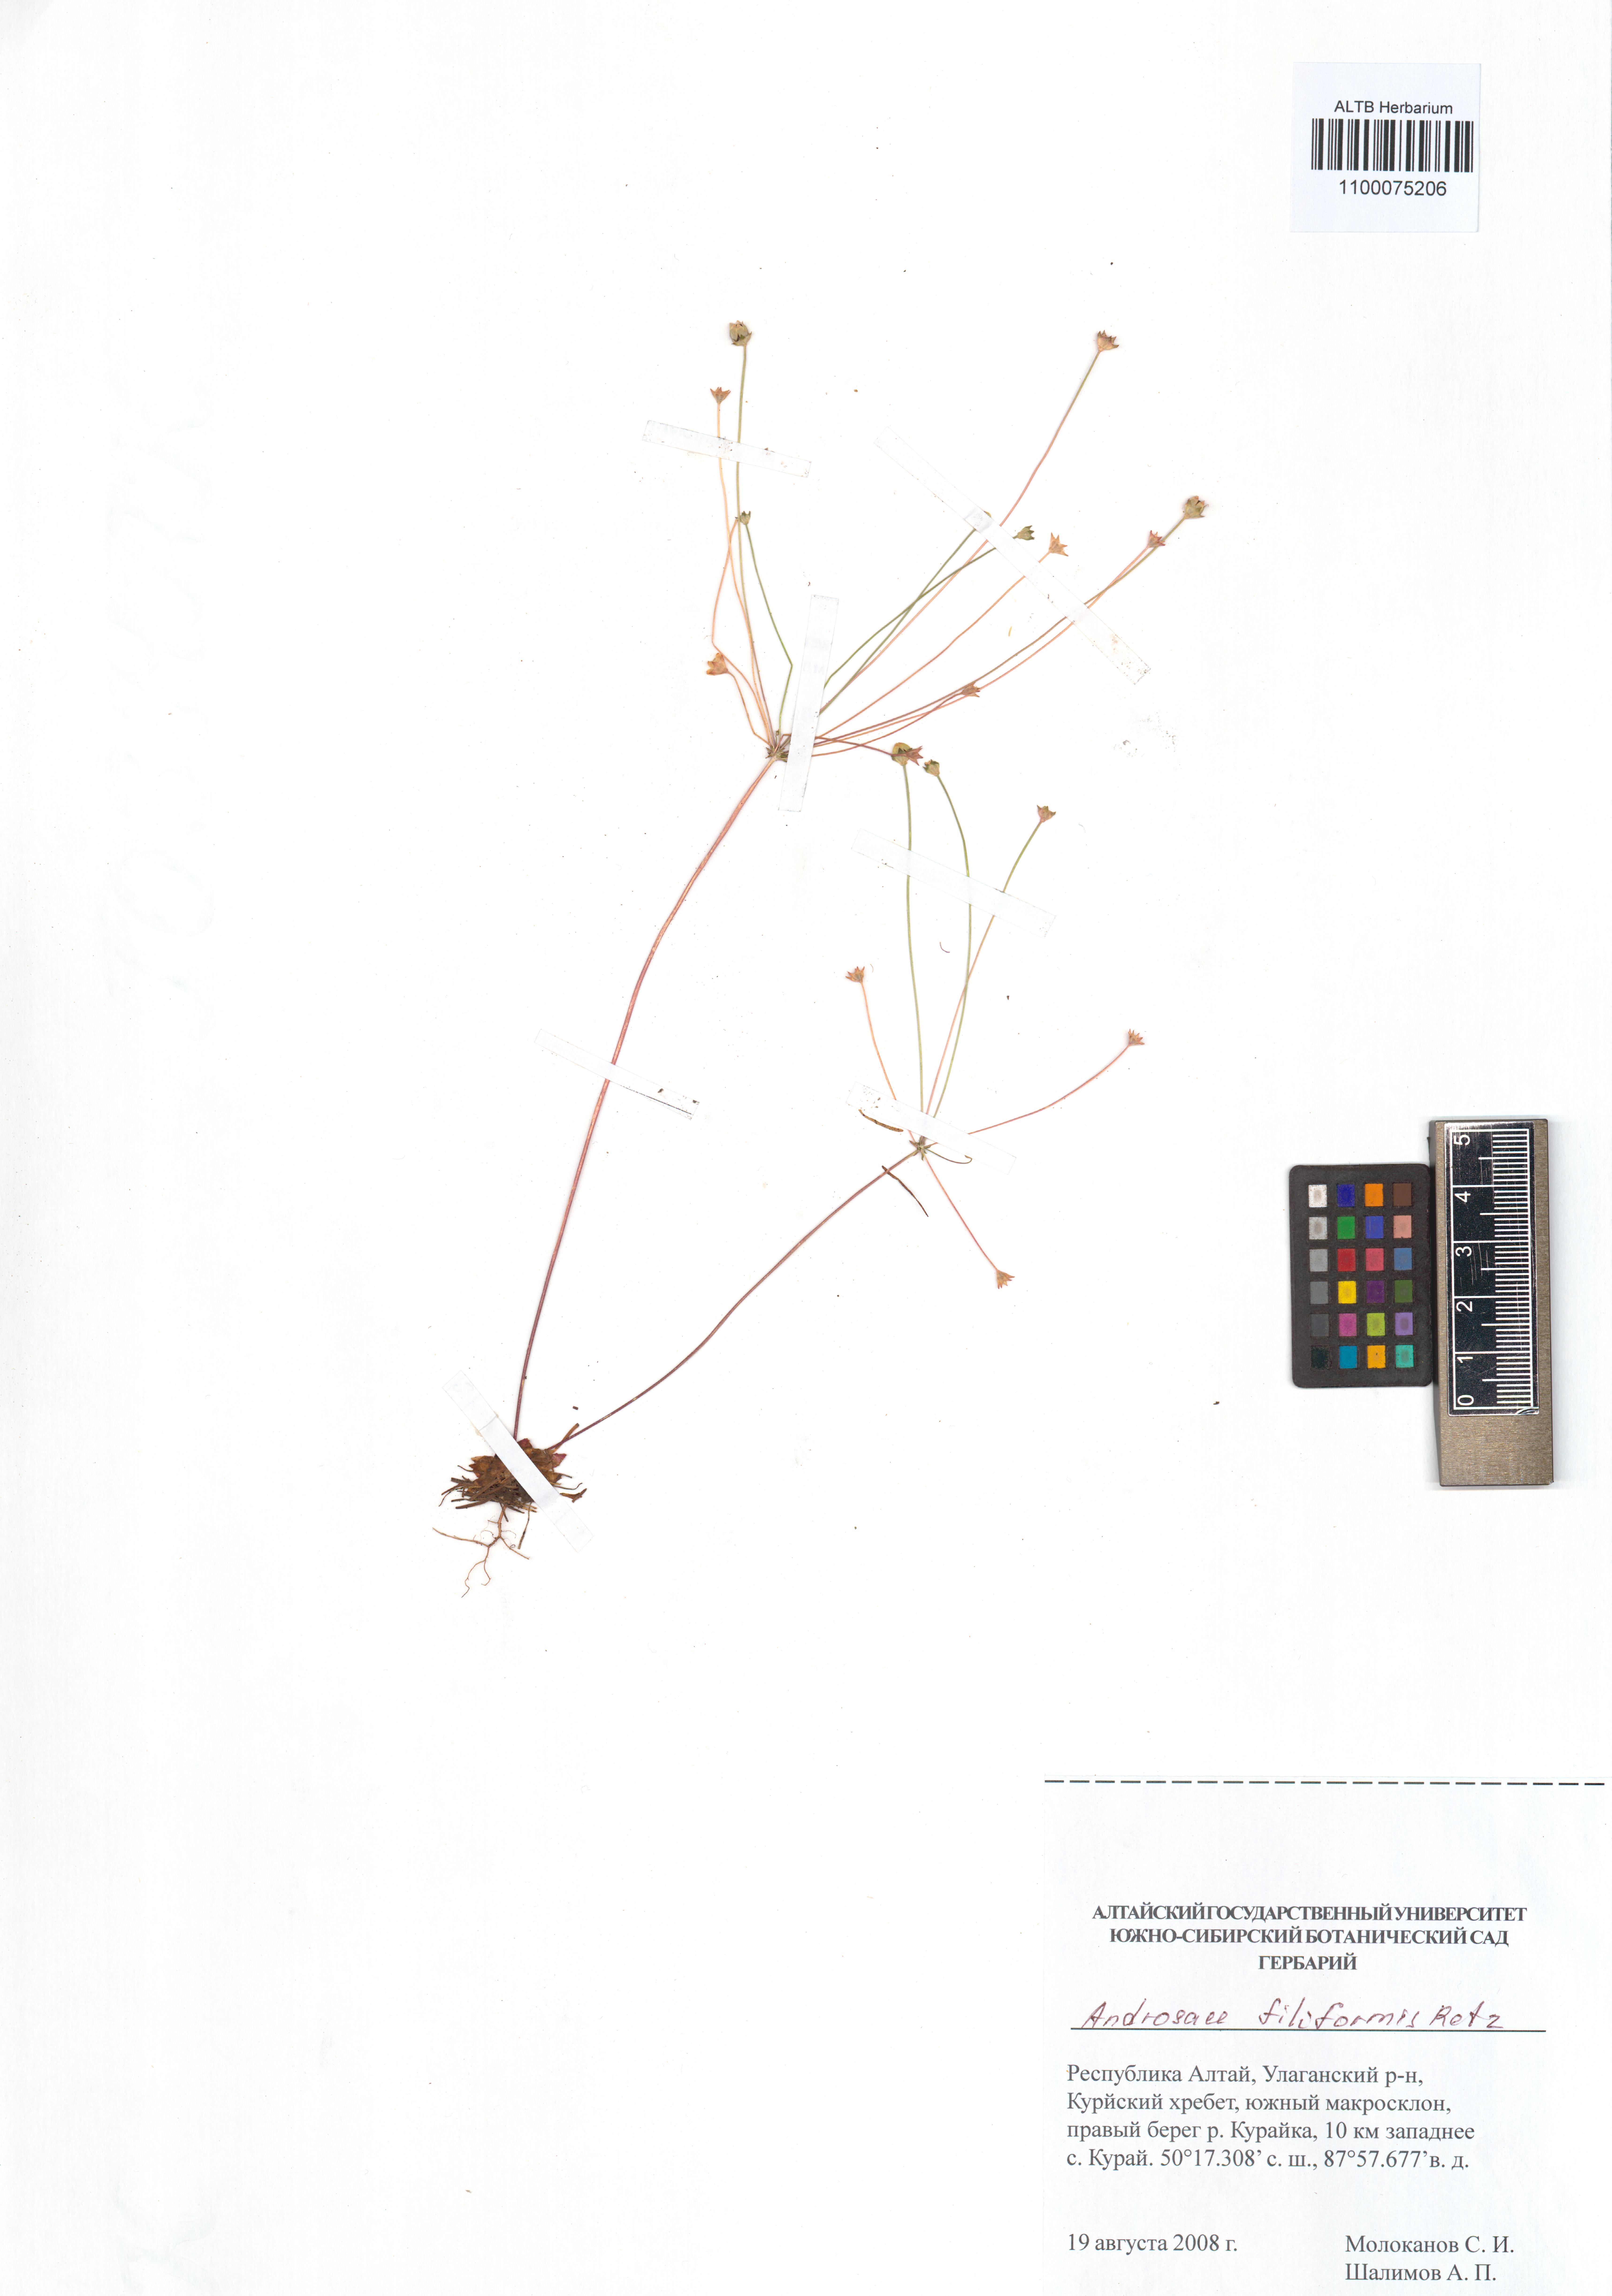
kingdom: Plantae
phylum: Tracheophyta
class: Magnoliopsida
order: Ericales
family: Primulaceae
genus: Androsace
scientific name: Androsace filiformis
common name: Filiform rock jasmine
